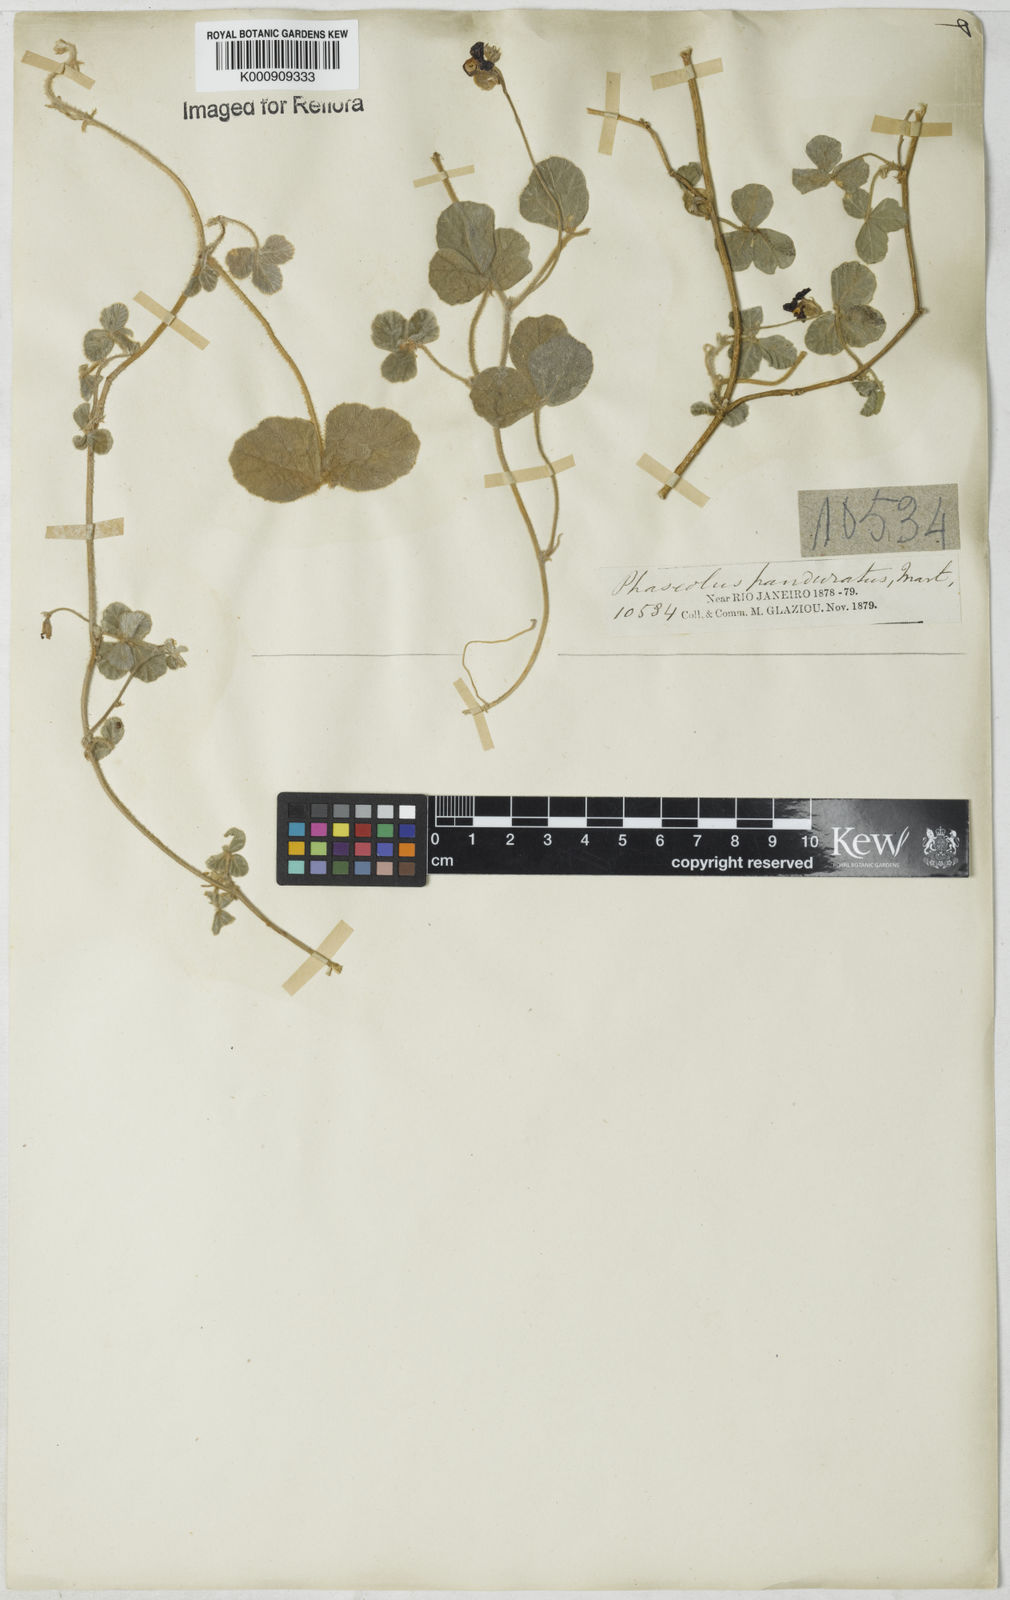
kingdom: Plantae
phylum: Tracheophyta
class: Magnoliopsida
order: Fabales
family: Fabaceae
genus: Macroptilium
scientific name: Macroptilium
